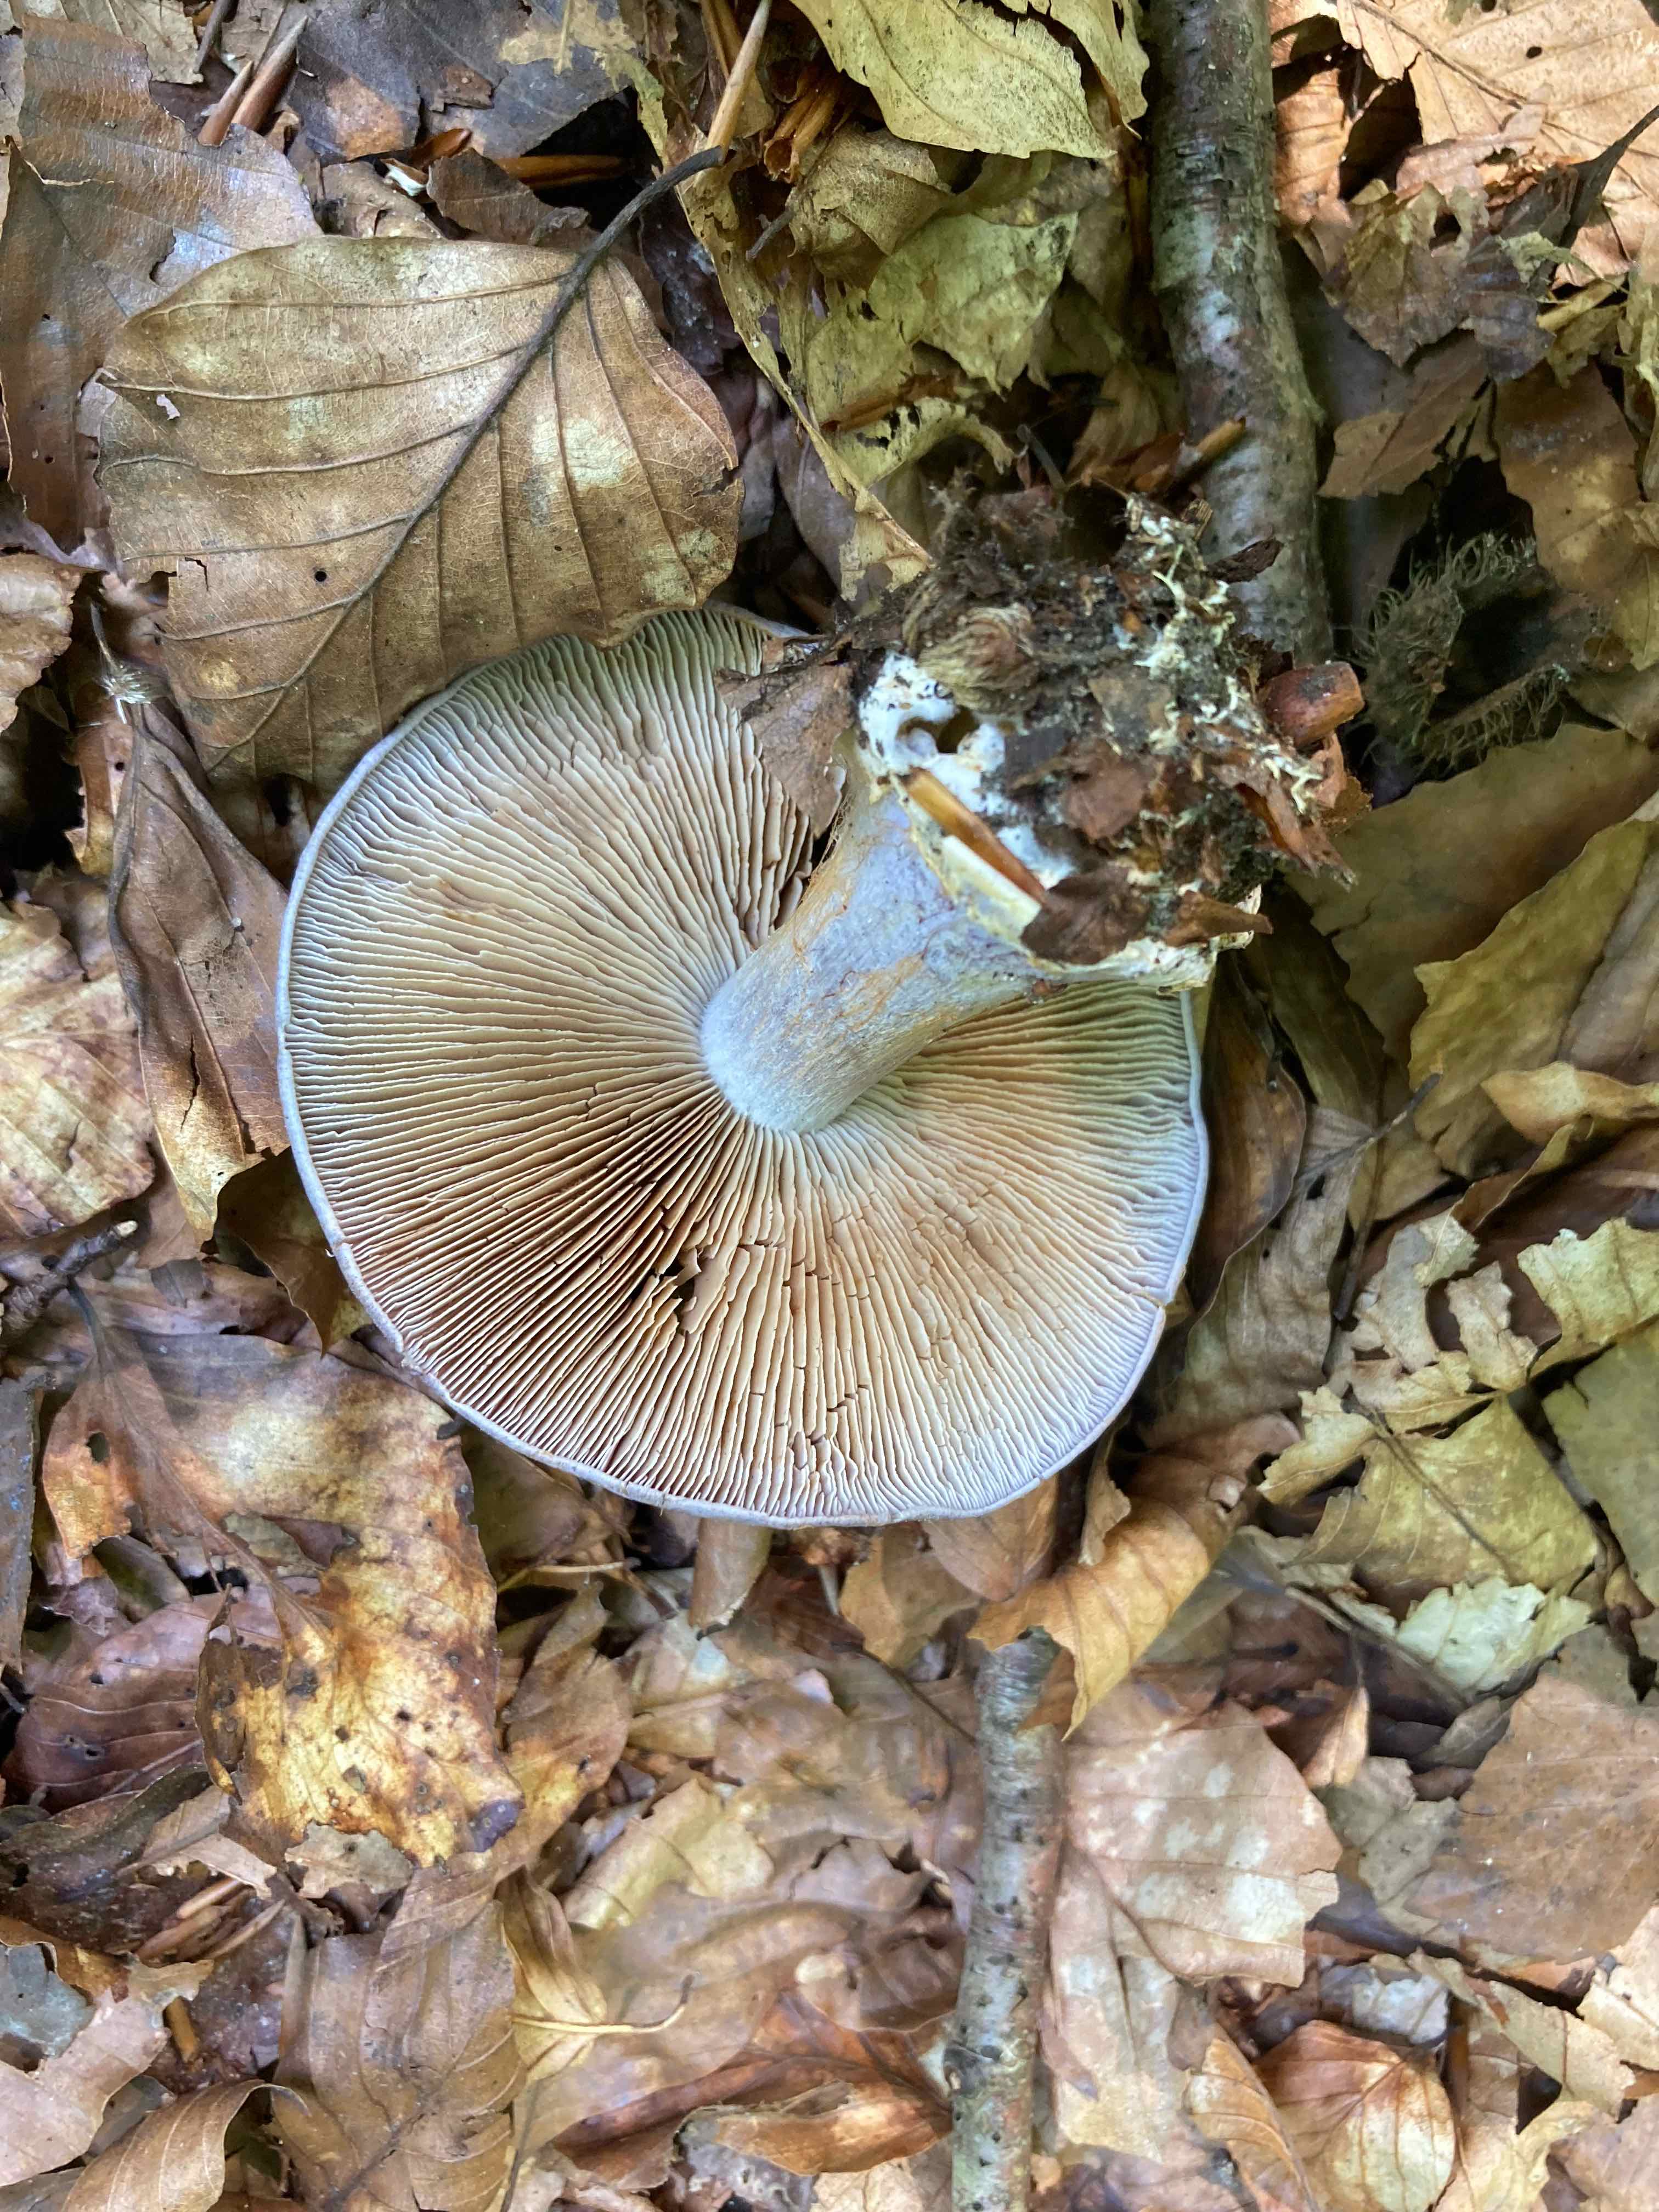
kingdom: Fungi
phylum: Basidiomycota
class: Agaricomycetes
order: Agaricales
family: Cortinariaceae
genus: Cortinarius
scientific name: Cortinarius caerulescens
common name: blåkødet slørhat
